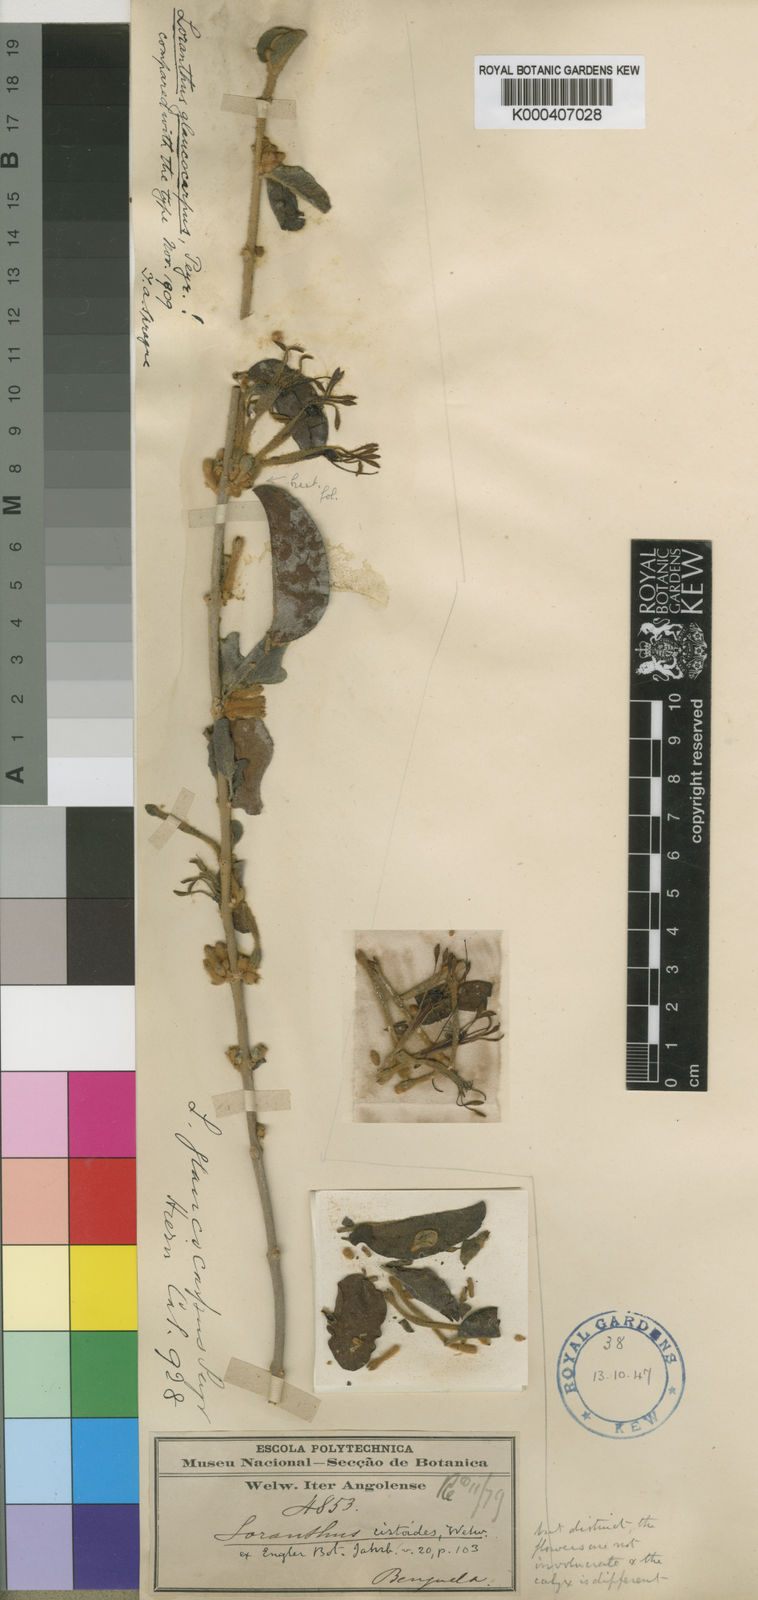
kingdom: Plantae
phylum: Tracheophyta
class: Magnoliopsida
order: Santalales
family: Loranthaceae
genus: Phragmanthera
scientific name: Phragmanthera glaucocarpa
